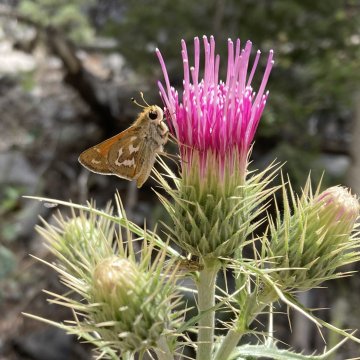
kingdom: Animalia
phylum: Arthropoda
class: Insecta
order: Lepidoptera
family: Hesperiidae
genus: Hesperia
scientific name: Hesperia
